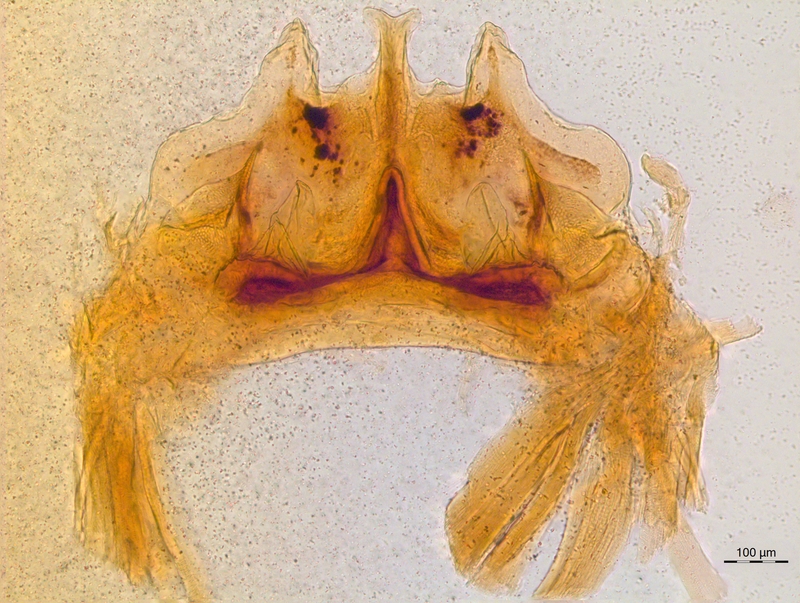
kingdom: Animalia
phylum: Arthropoda
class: Diplopoda
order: Chordeumatida
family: Craspedosomatidae
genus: Craspedosoma
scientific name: Craspedosoma rawlinsii
